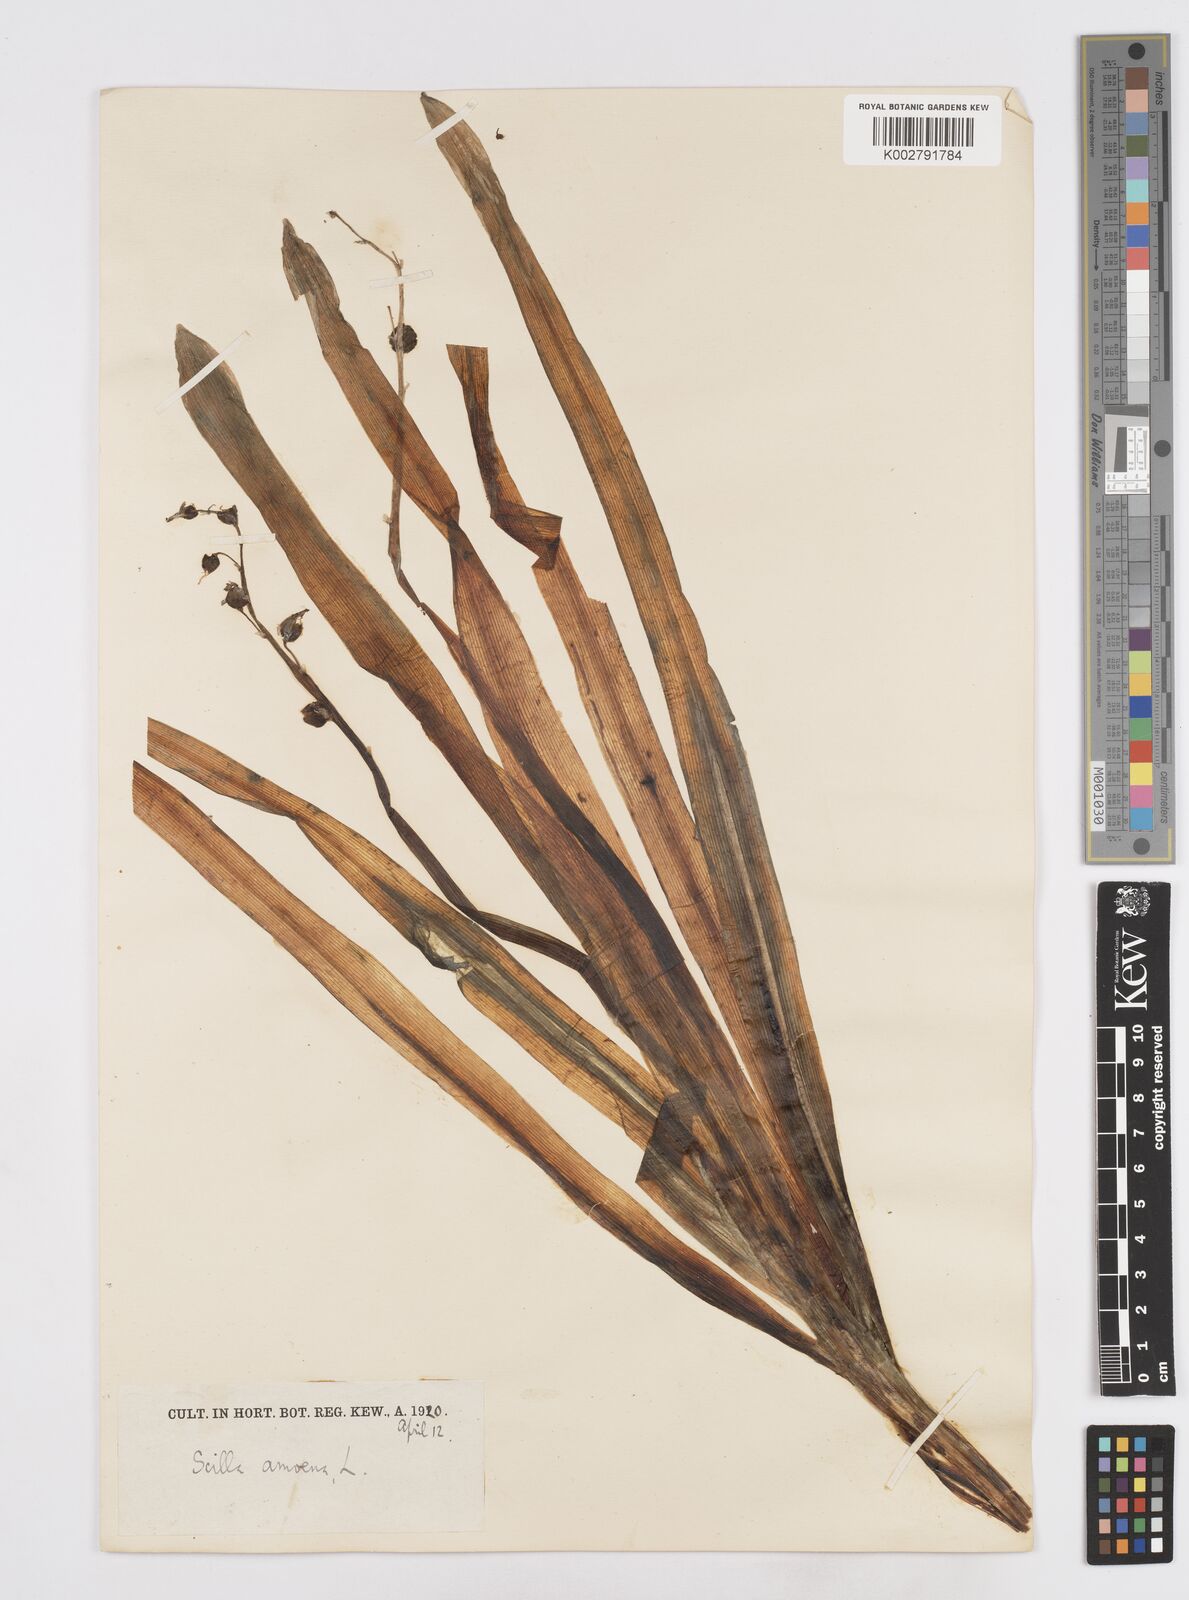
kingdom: Plantae
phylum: Tracheophyta
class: Liliopsida
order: Asparagales
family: Asparagaceae
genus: Scilla
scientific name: Scilla amoena
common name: Star-hyacinth
